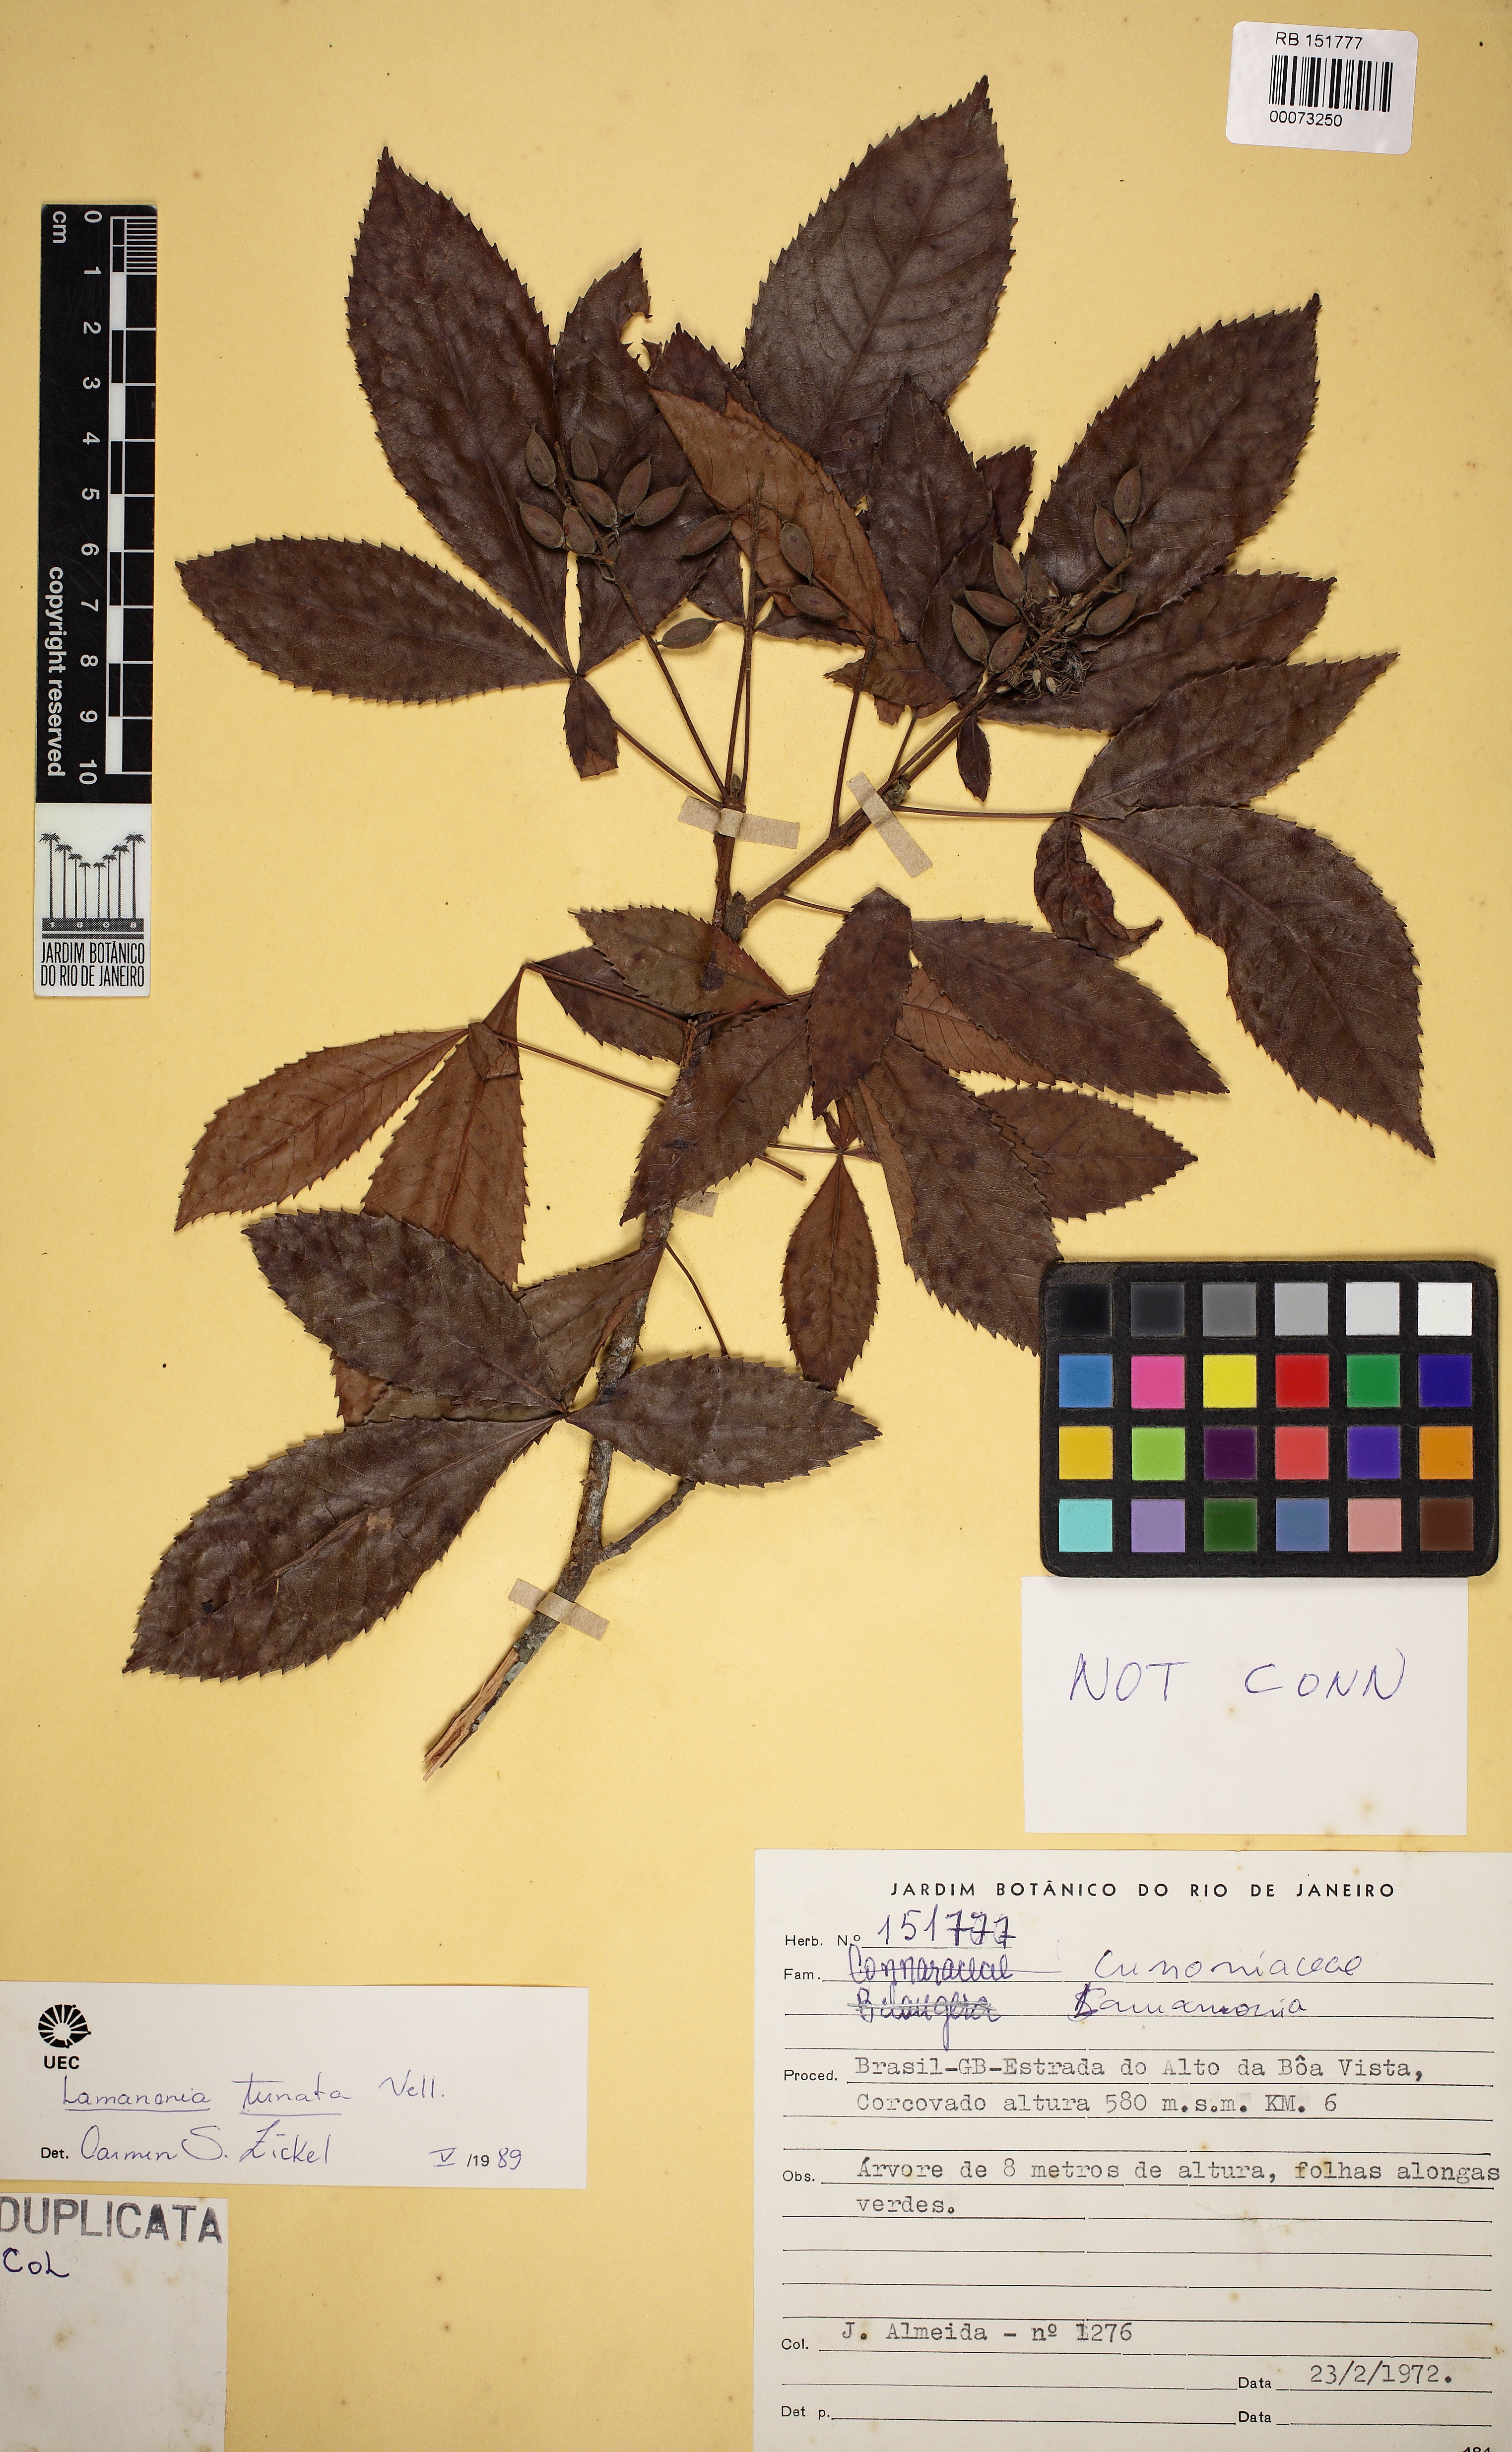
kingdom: Plantae
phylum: Tracheophyta
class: Magnoliopsida
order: Oxalidales
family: Cunoniaceae
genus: Lamanonia
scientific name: Lamanonia ternata
